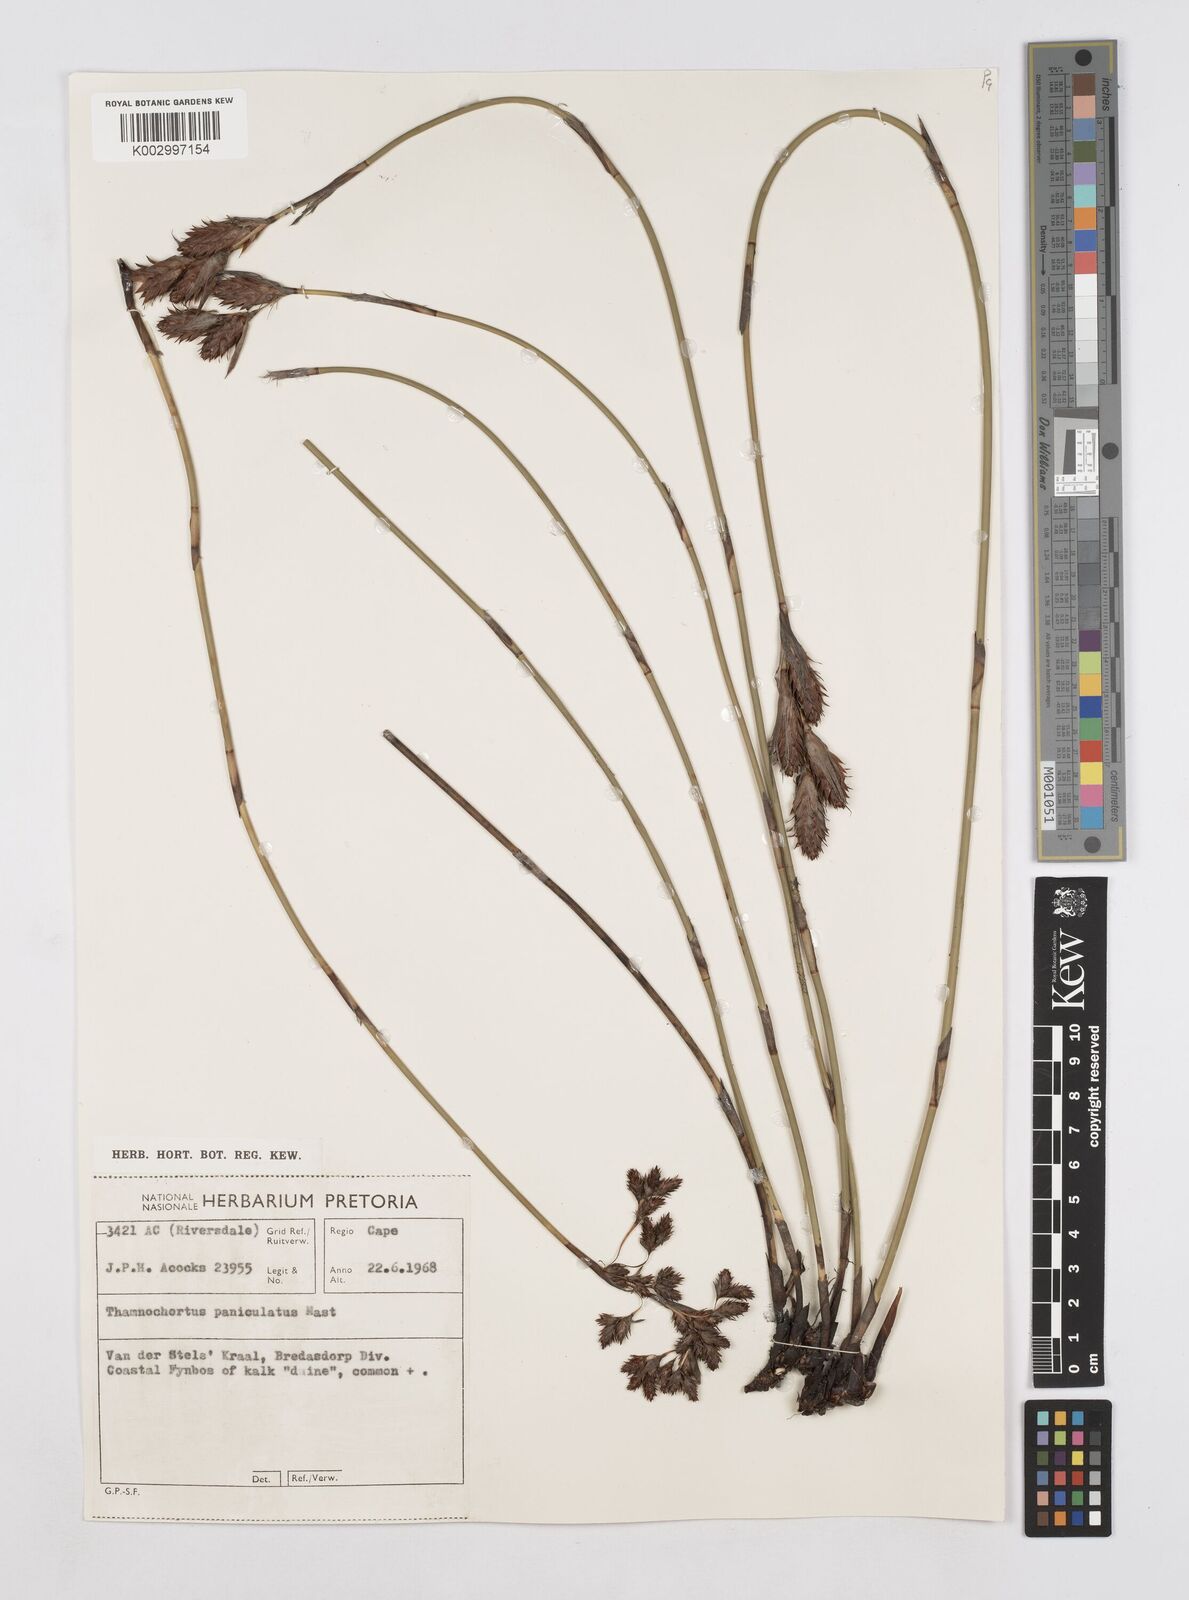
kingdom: Plantae
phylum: Tracheophyta
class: Liliopsida
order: Poales
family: Restionaceae
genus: Thamnochortus
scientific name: Thamnochortus paniculatus
